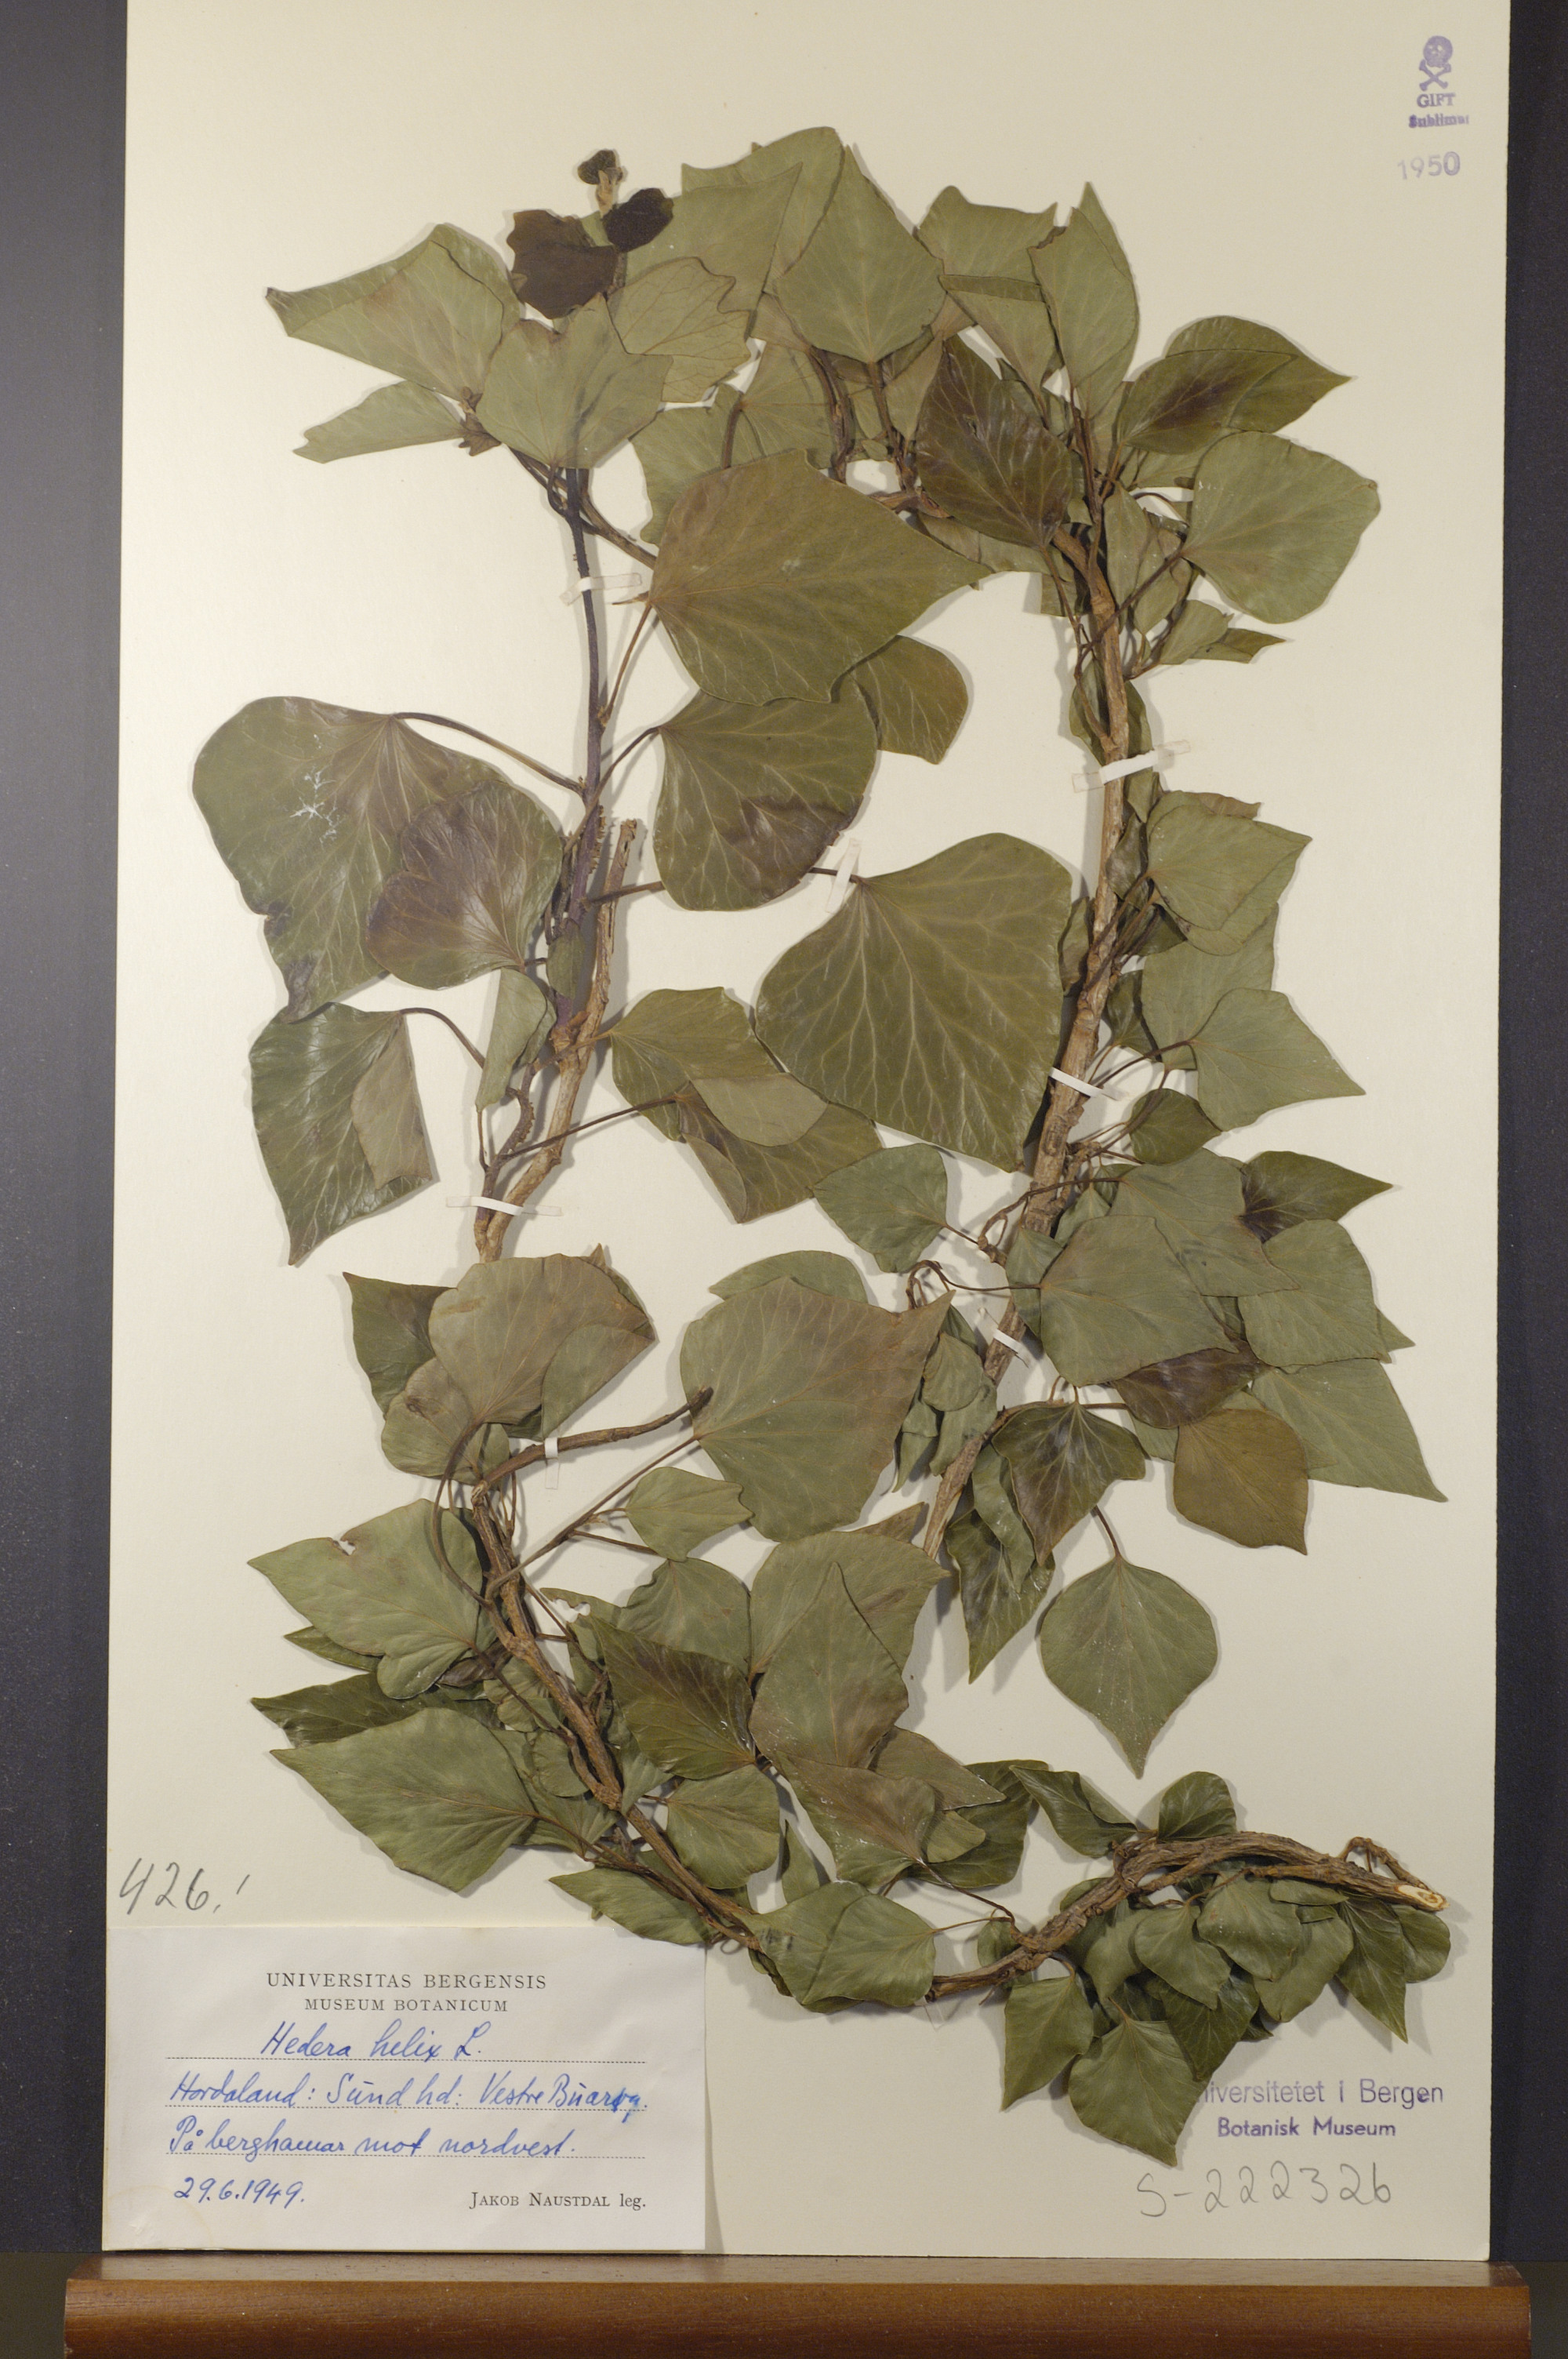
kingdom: Plantae
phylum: Tracheophyta
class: Magnoliopsida
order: Apiales
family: Araliaceae
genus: Hedera
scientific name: Hedera helix
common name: Ivy
